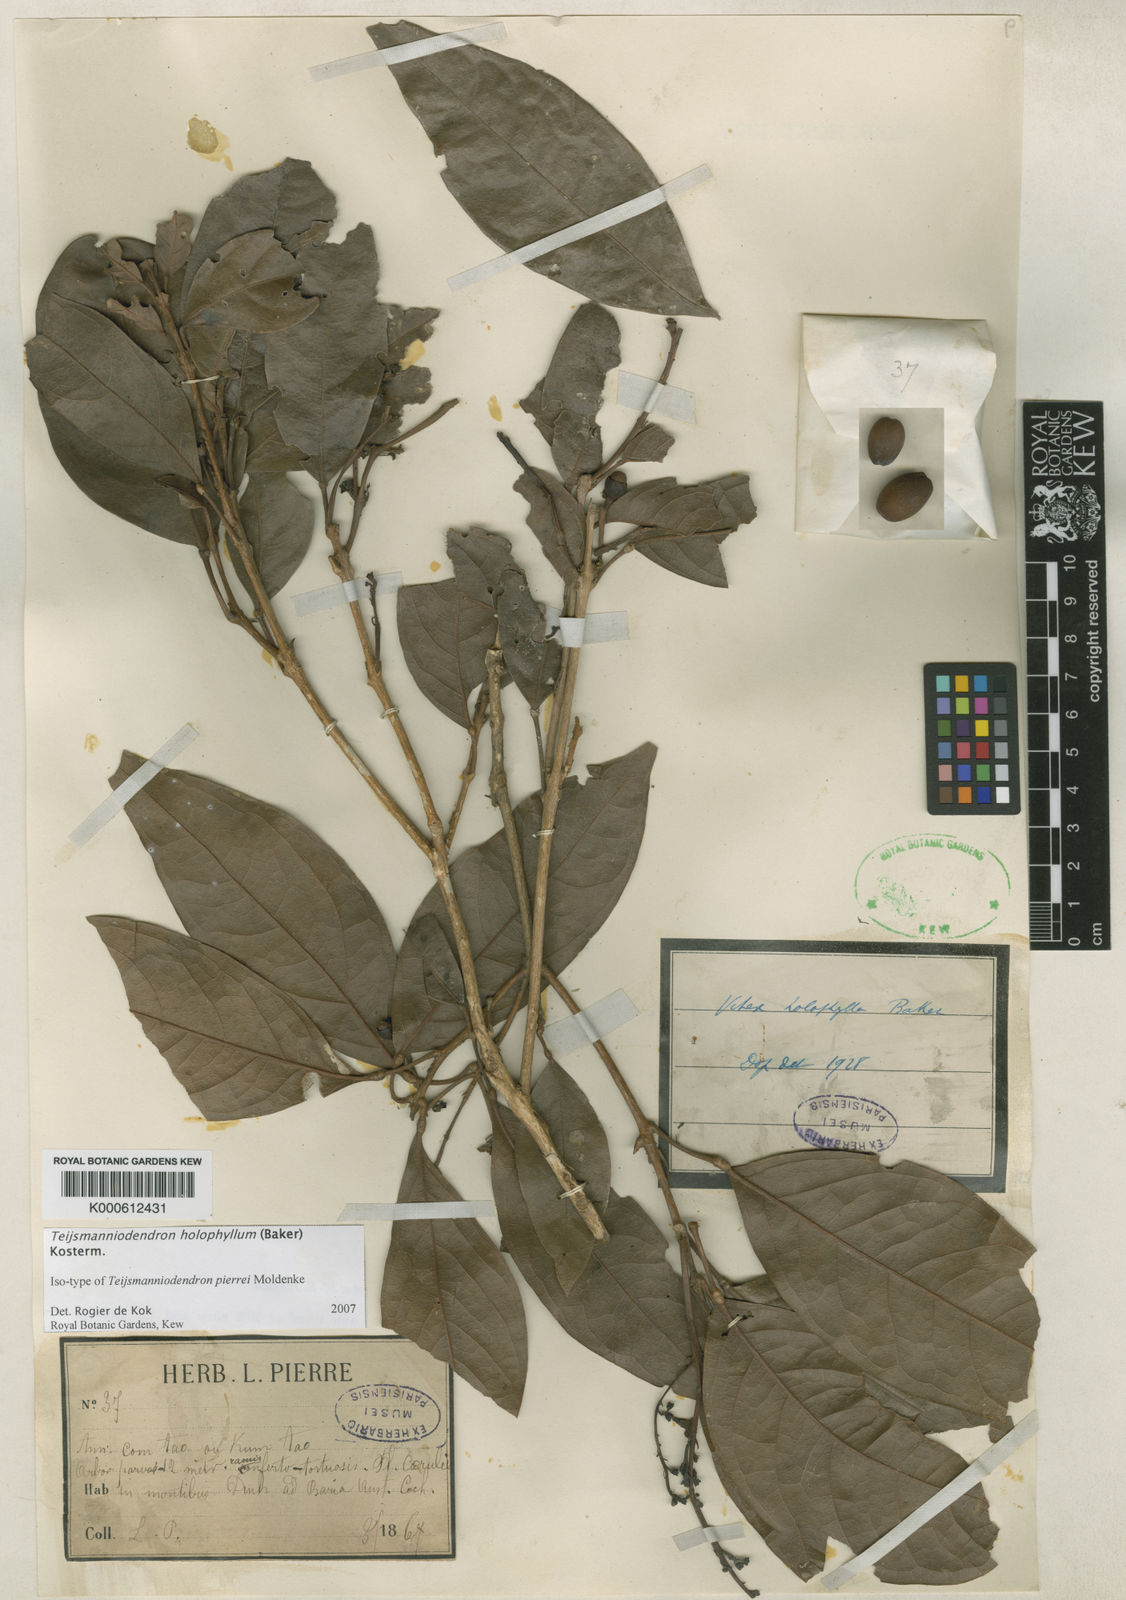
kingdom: Plantae
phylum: Tracheophyta
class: Magnoliopsida
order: Lamiales
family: Lamiaceae
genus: Teijsmanniodendron
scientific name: Teijsmanniodendron
